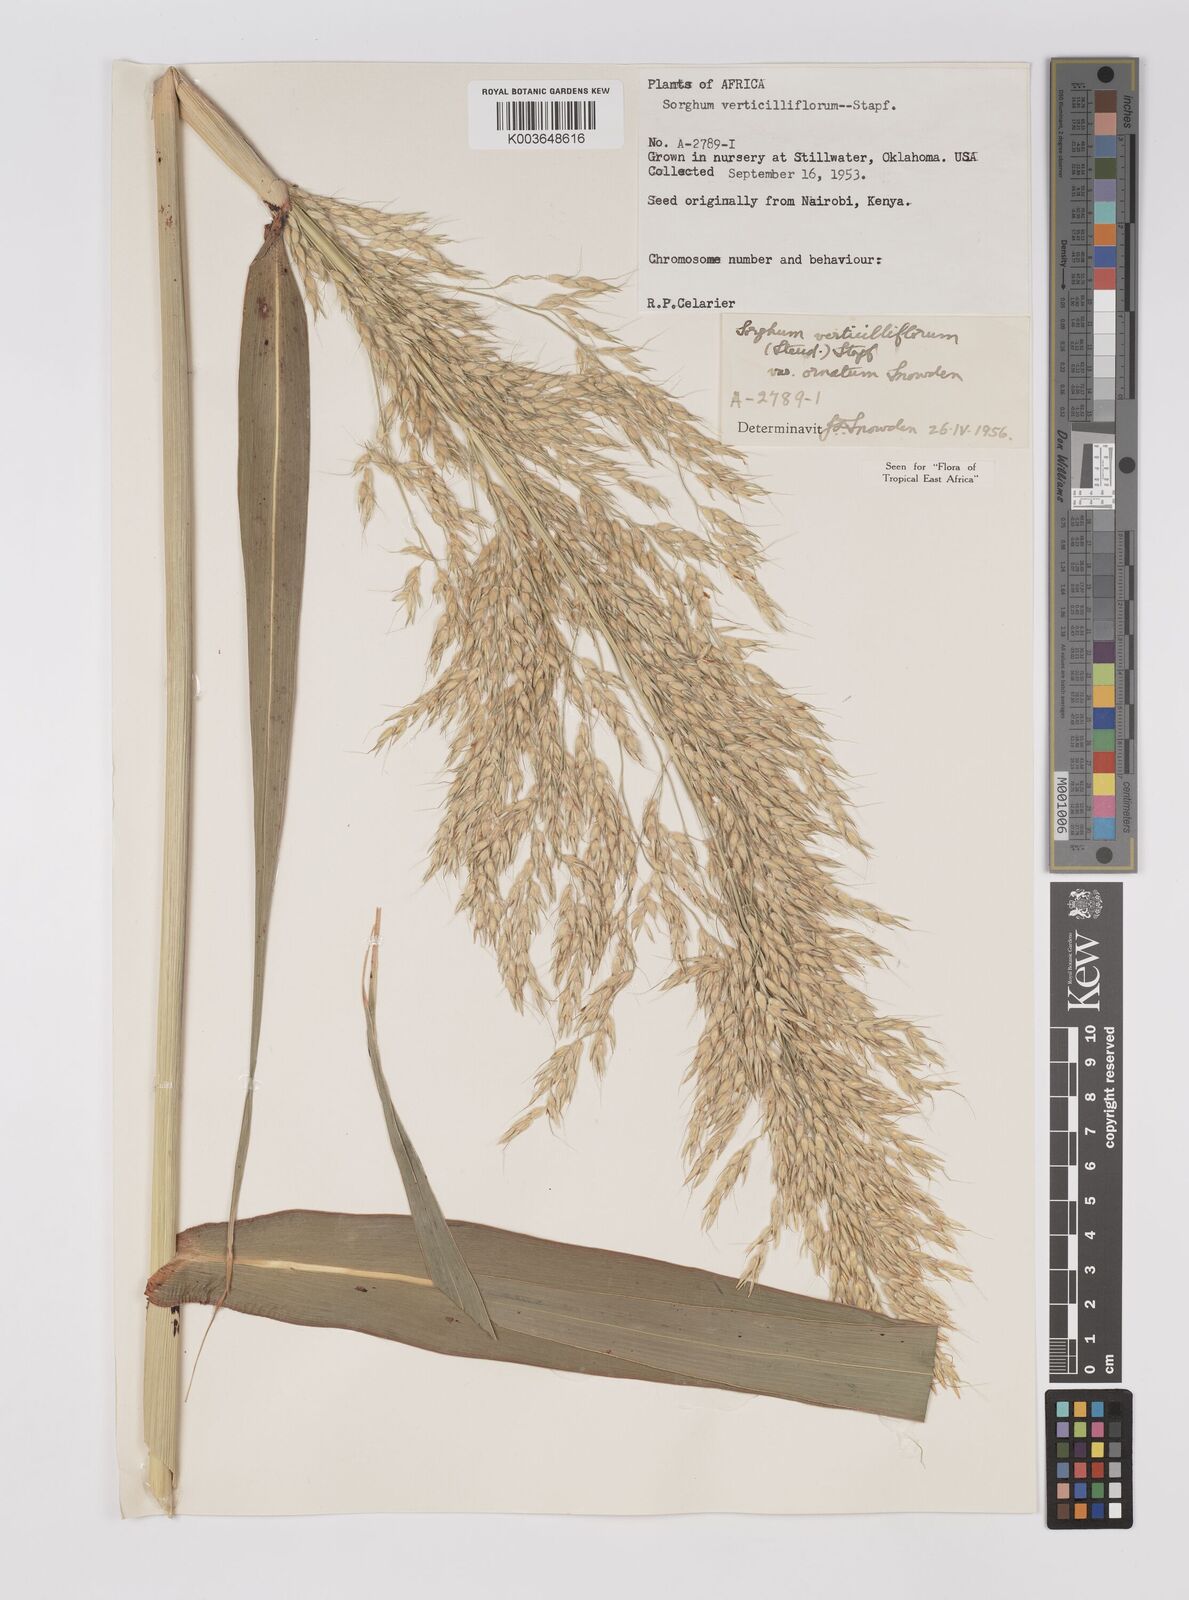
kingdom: Plantae
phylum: Tracheophyta
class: Liliopsida
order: Poales
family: Poaceae
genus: Sorghum
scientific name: Sorghum arundinaceum
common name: Sorghum
